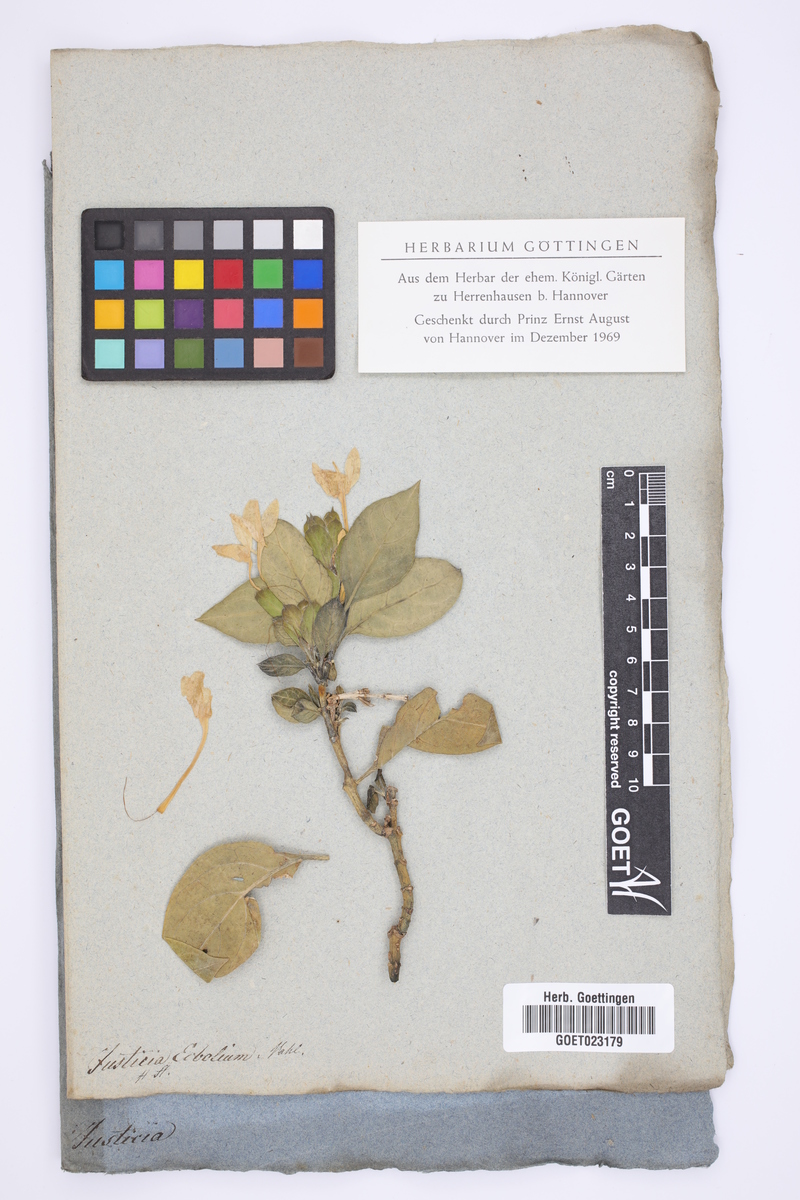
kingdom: Plantae
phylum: Tracheophyta
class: Magnoliopsida
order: Lamiales
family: Acanthaceae
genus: Ecbolium
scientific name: Ecbolium ligustrinum
